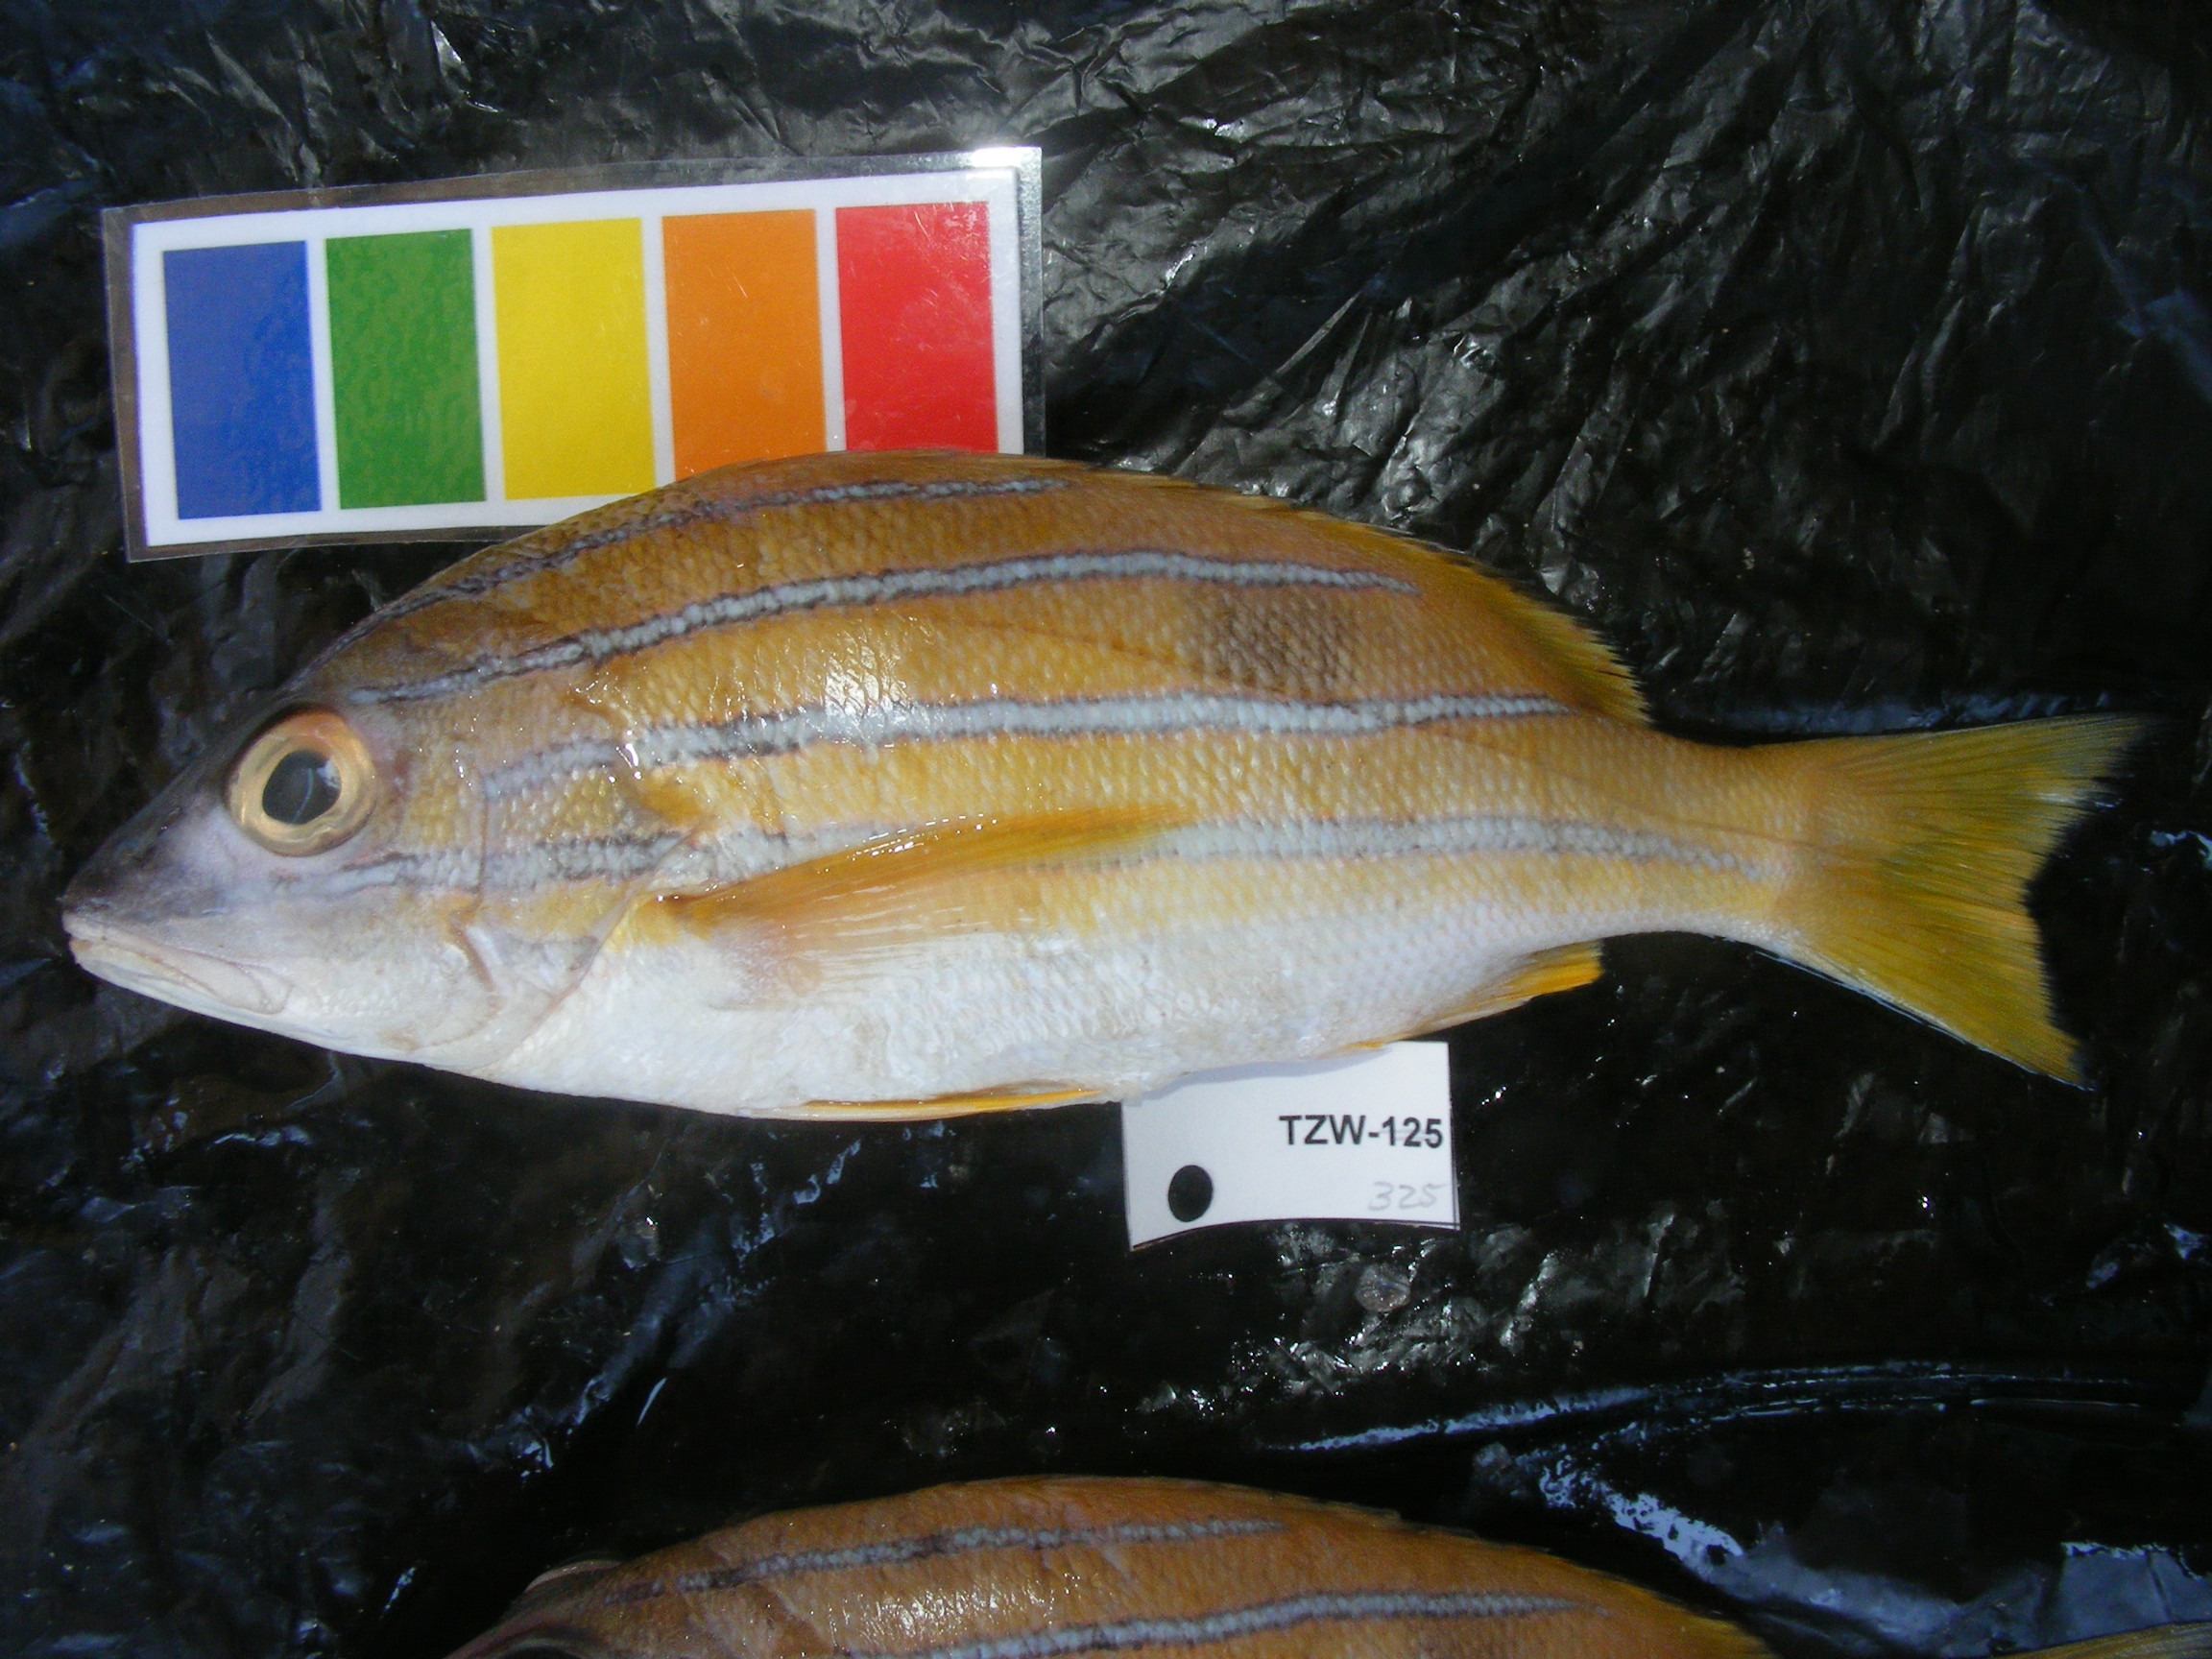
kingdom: Animalia
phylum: Chordata
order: Perciformes
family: Lutjanidae
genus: Lutjanus
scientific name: Lutjanus kasmira
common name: Common bluestripe snapper
